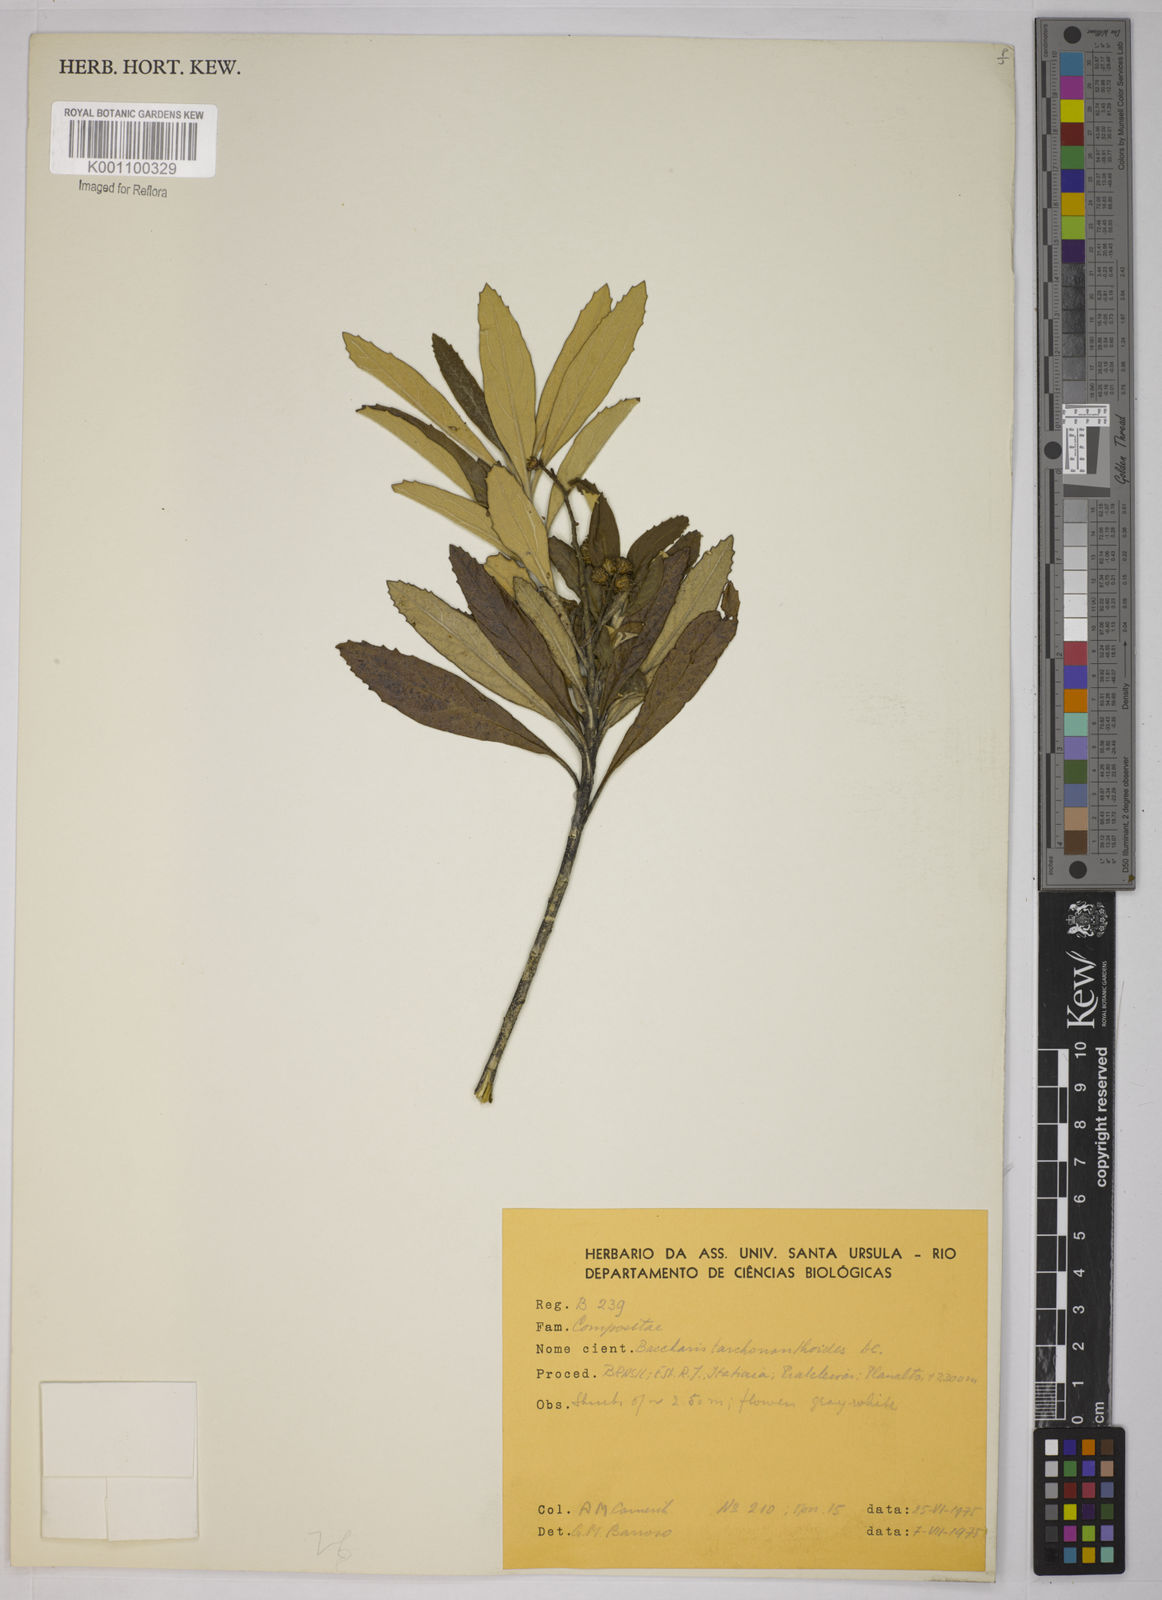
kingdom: Plantae
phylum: Tracheophyta
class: Magnoliopsida
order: Asterales
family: Asteraceae
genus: Baccharis
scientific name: Baccharis
